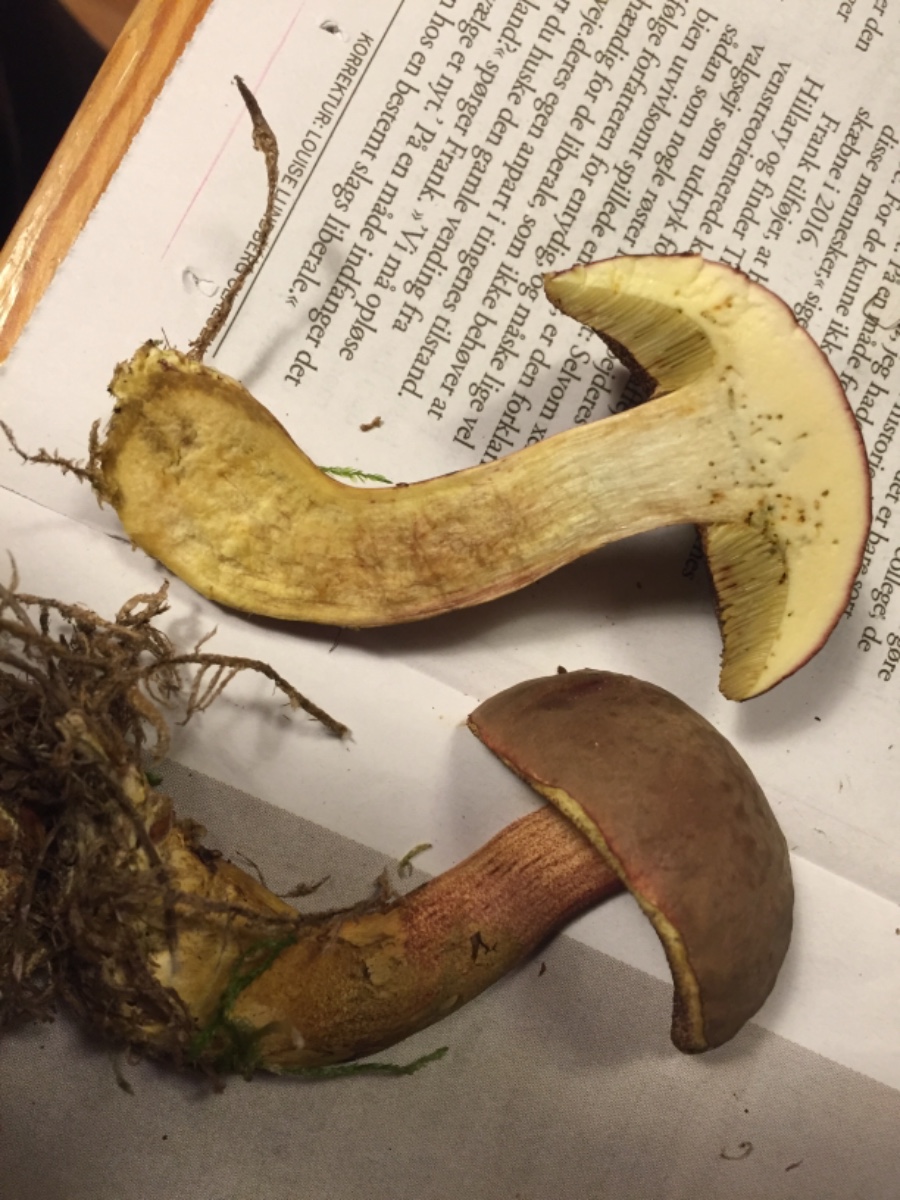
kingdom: Fungi
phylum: Basidiomycota
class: Agaricomycetes
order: Boletales
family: Boletaceae
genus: Xerocomellus
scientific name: Xerocomellus pruinatus
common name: dugget rørhat
